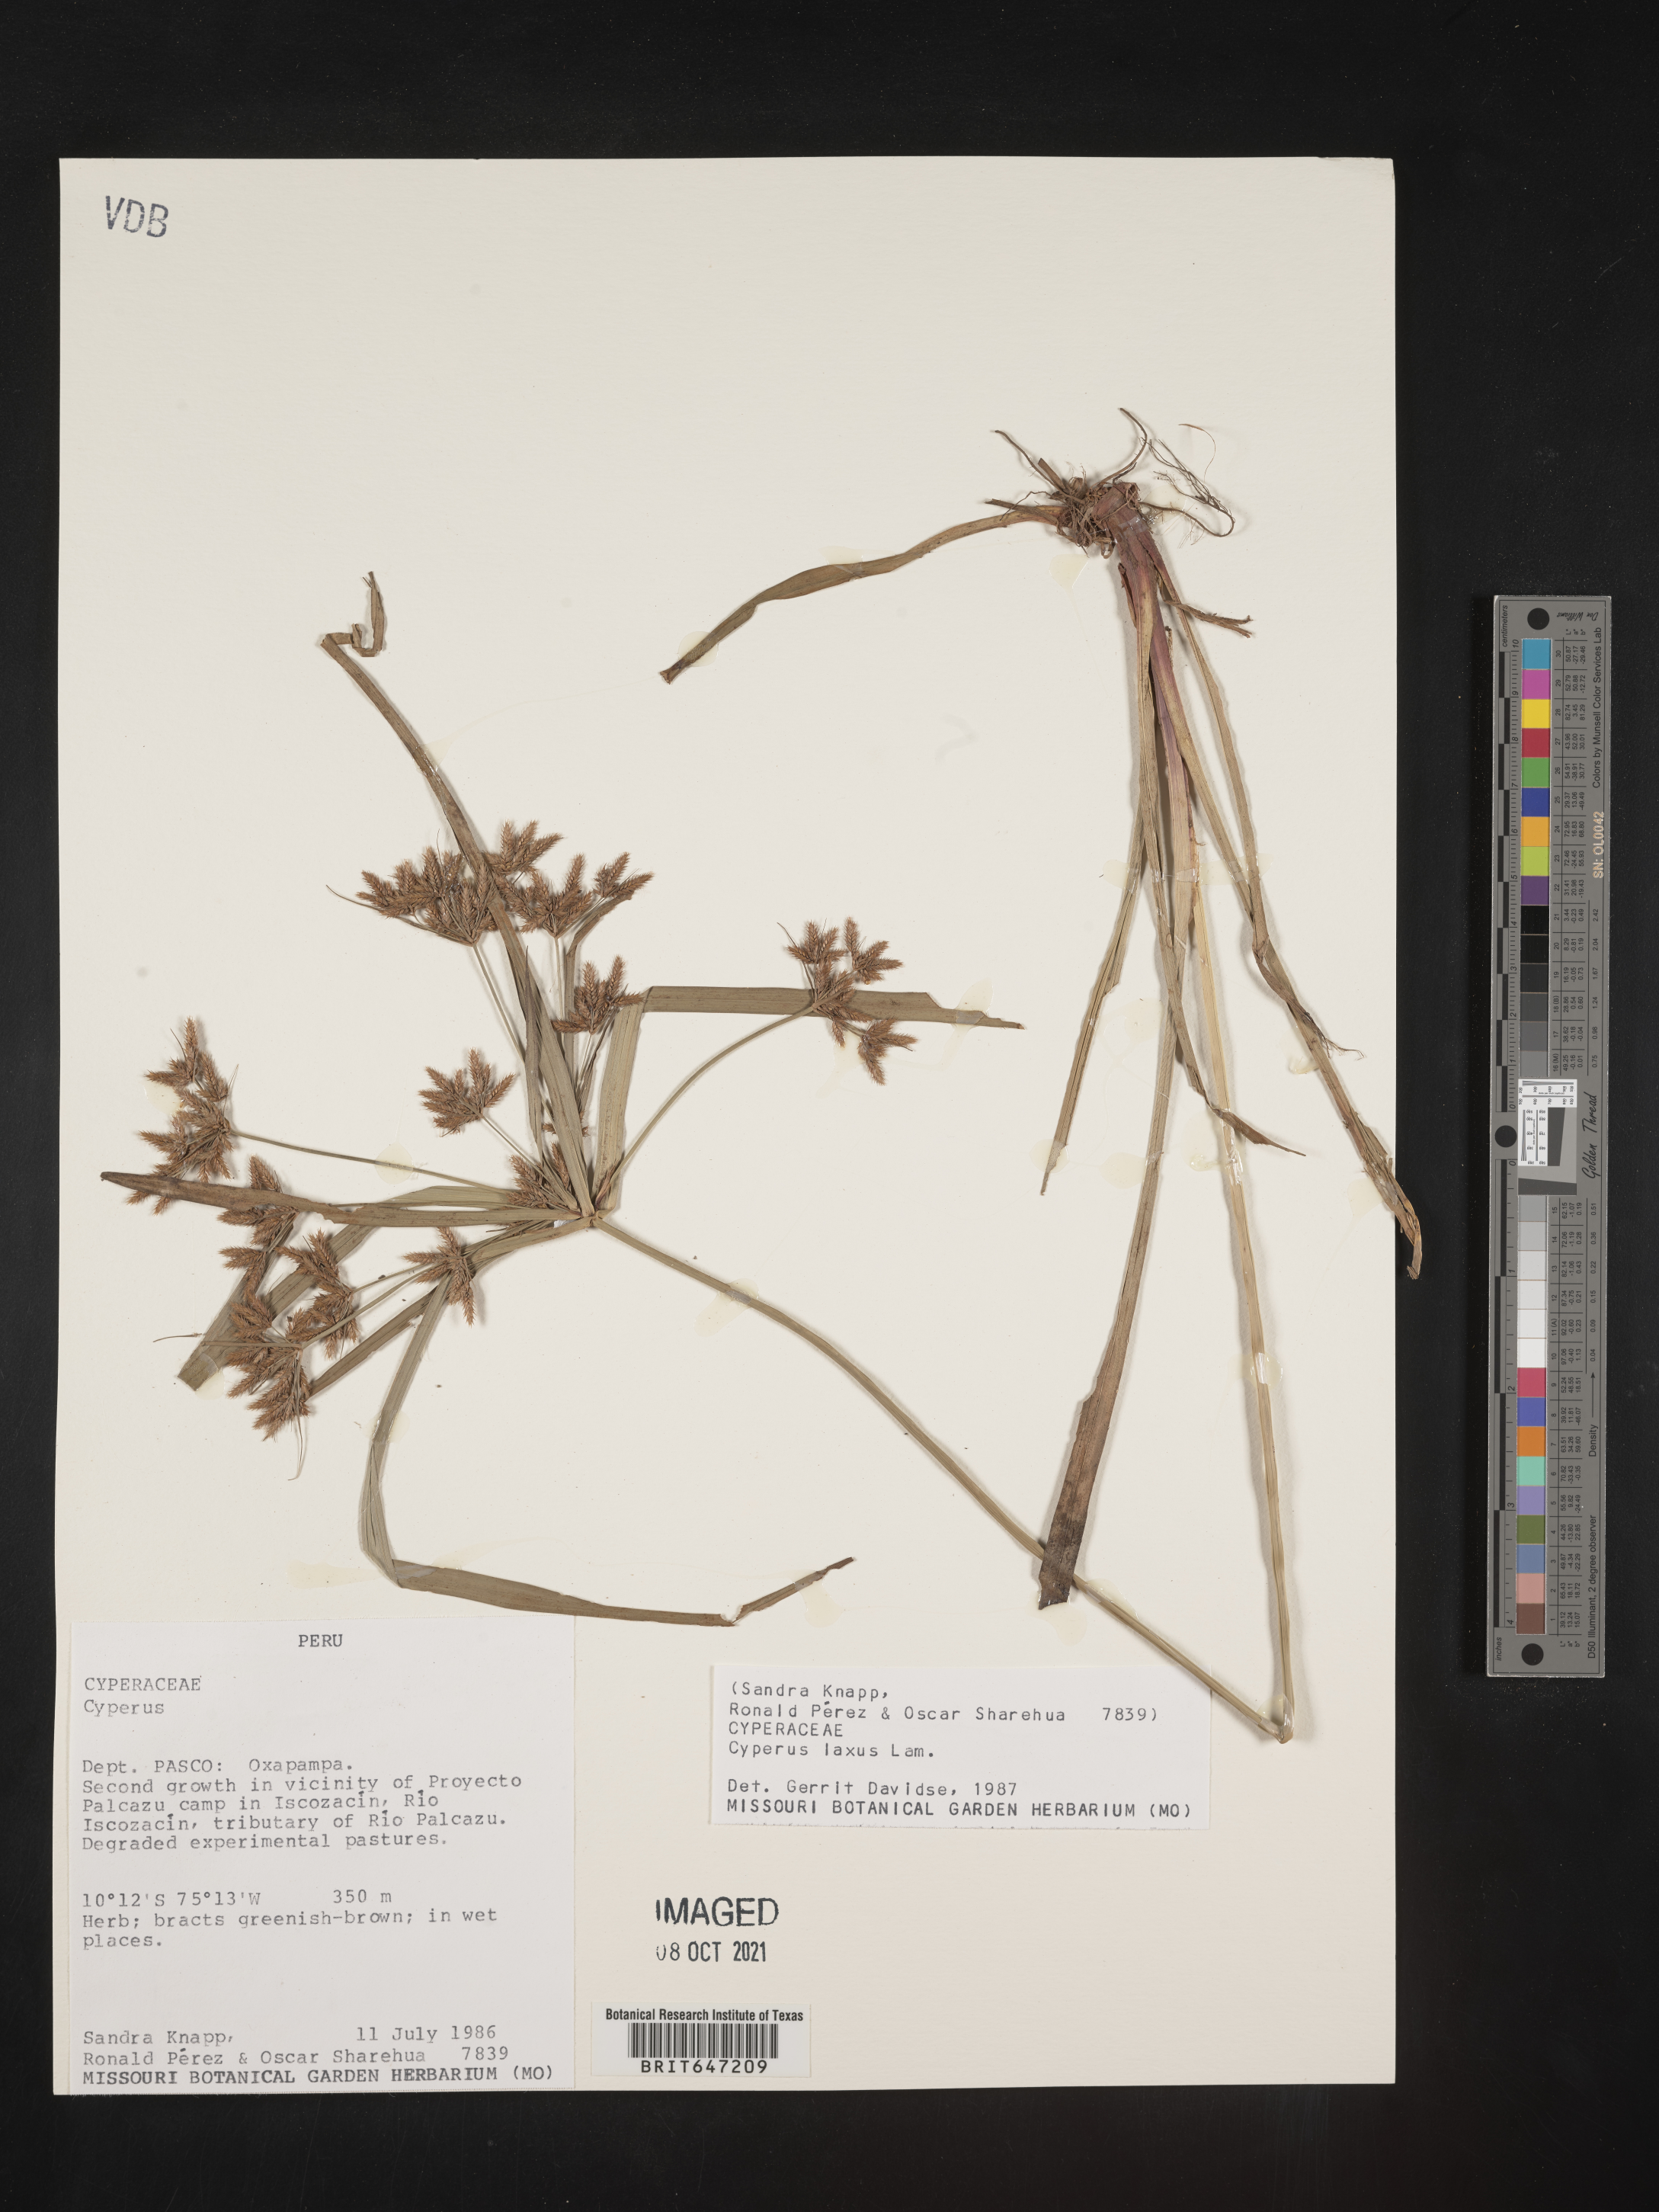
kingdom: Plantae
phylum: Tracheophyta
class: Liliopsida
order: Poales
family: Cyperaceae
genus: Cyperus
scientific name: Cyperus laxus
